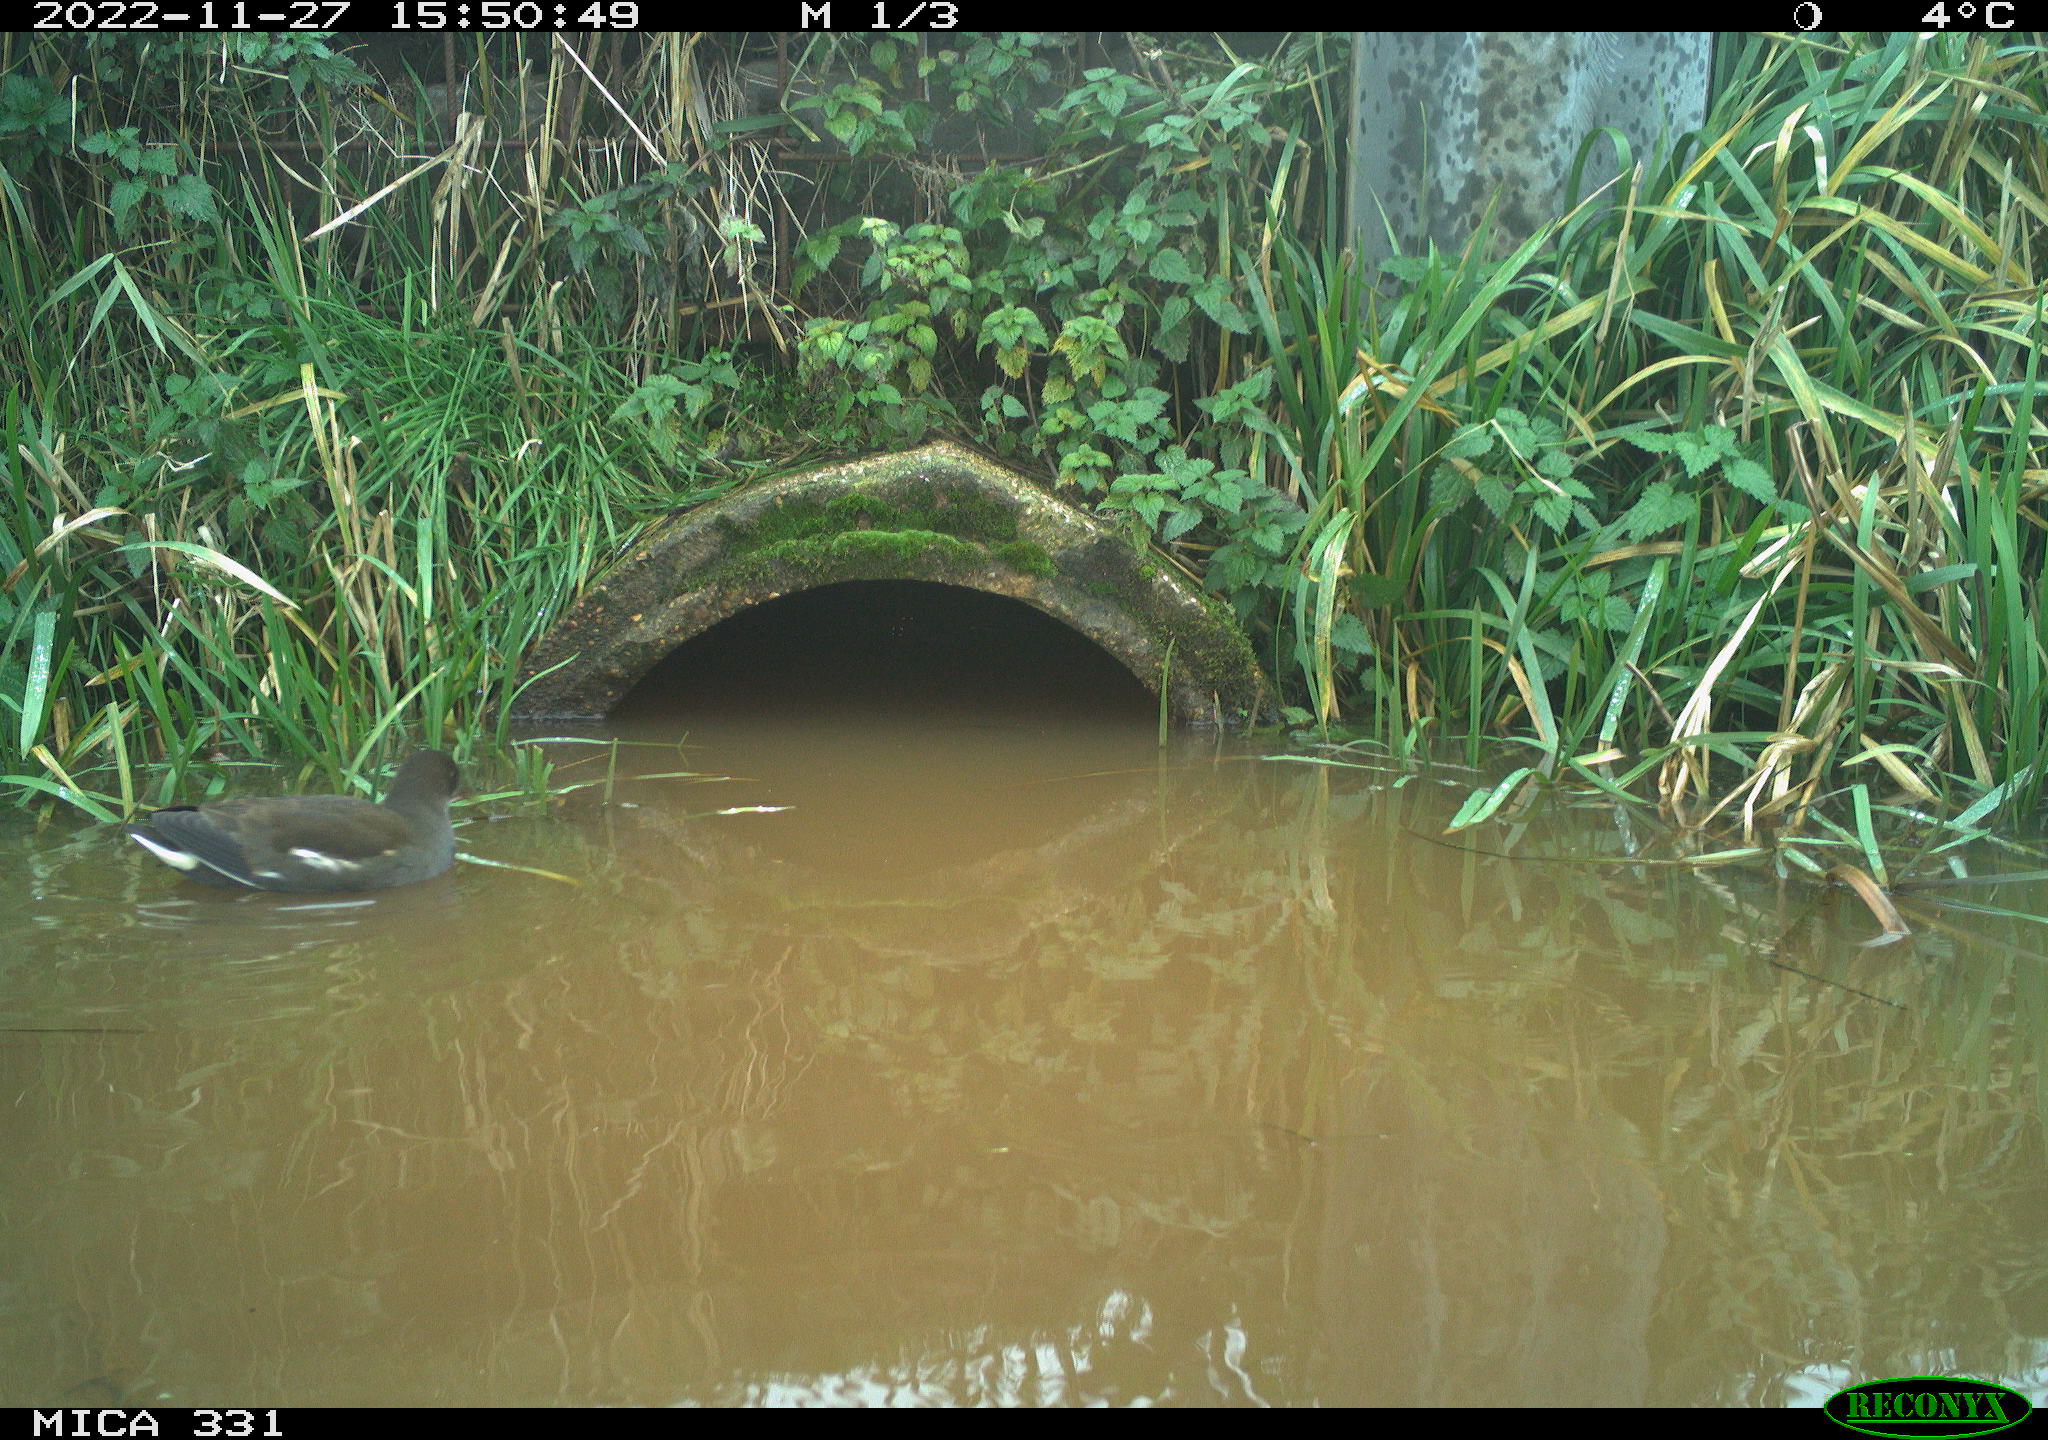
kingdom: Animalia
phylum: Chordata
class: Aves
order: Gruiformes
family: Rallidae
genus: Gallinula
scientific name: Gallinula chloropus
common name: Common moorhen
